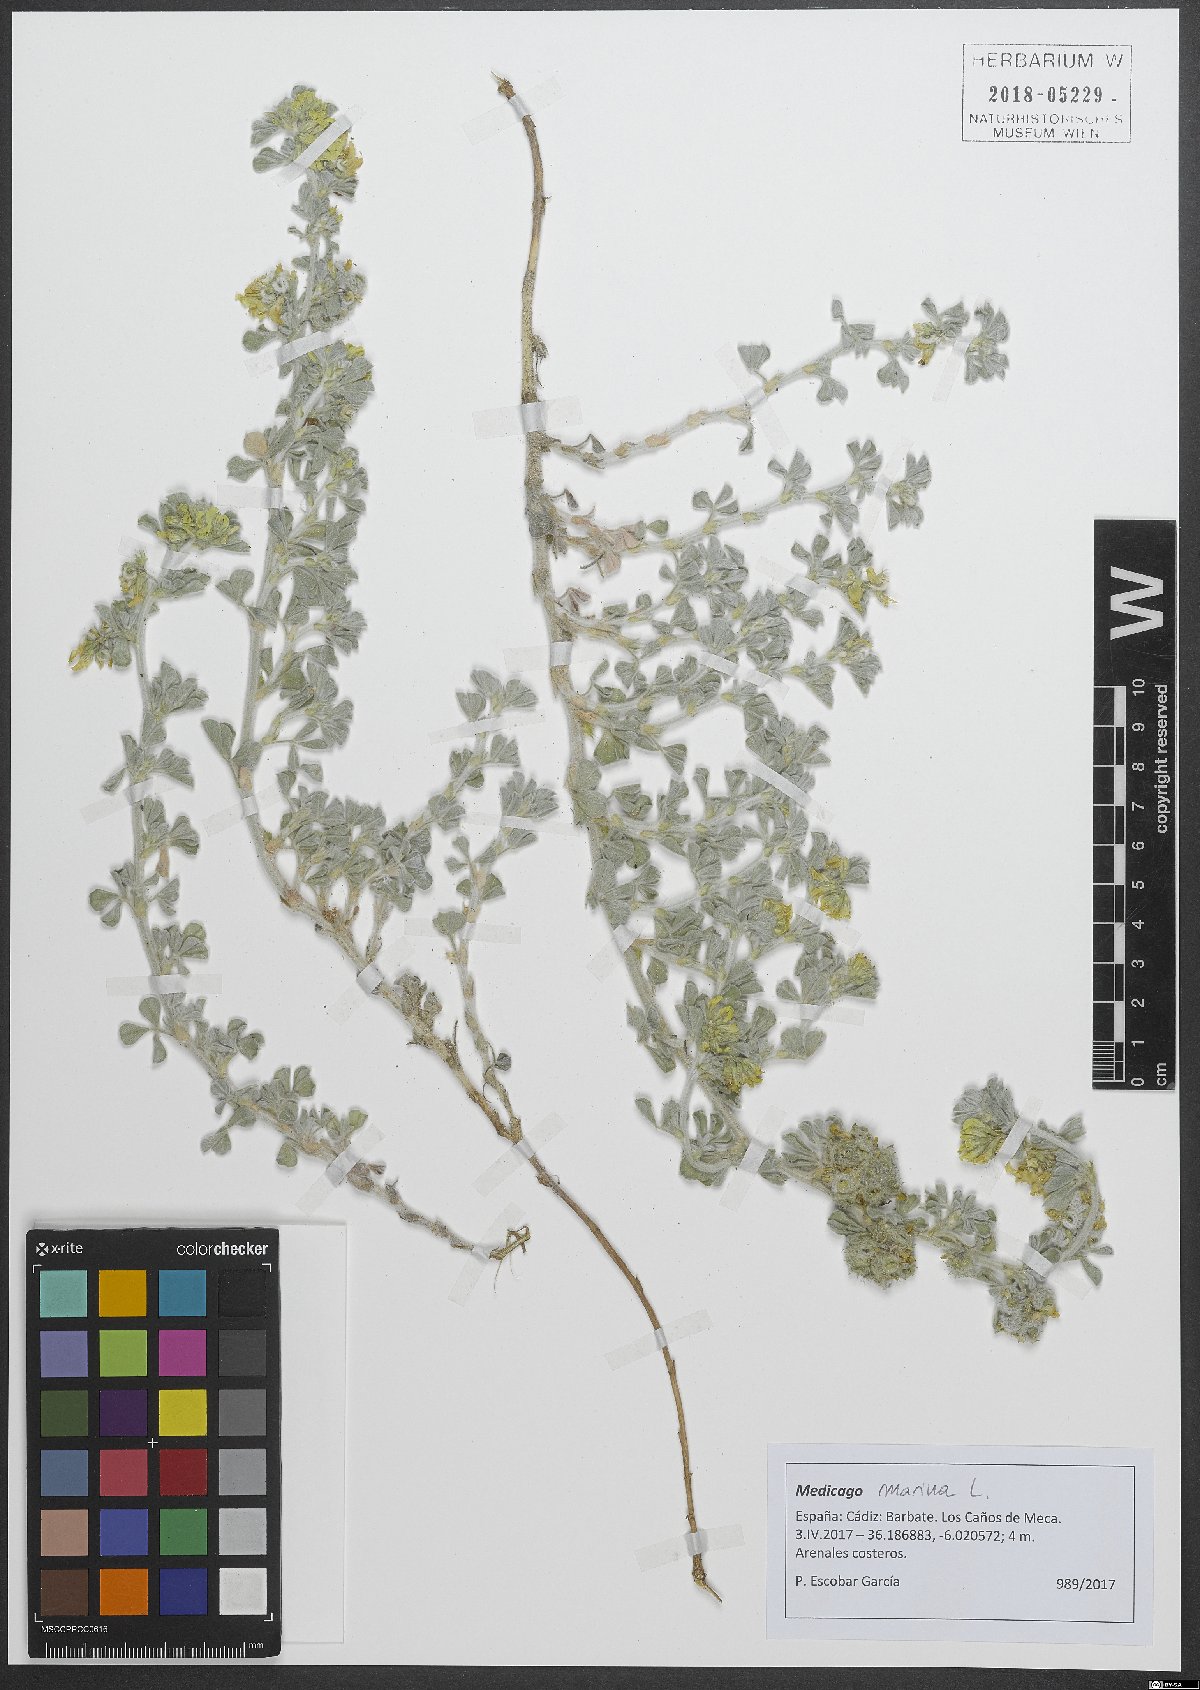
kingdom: Plantae
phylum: Tracheophyta
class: Magnoliopsida
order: Fabales
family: Fabaceae
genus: Medicago
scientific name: Medicago marina
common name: Sea medick
